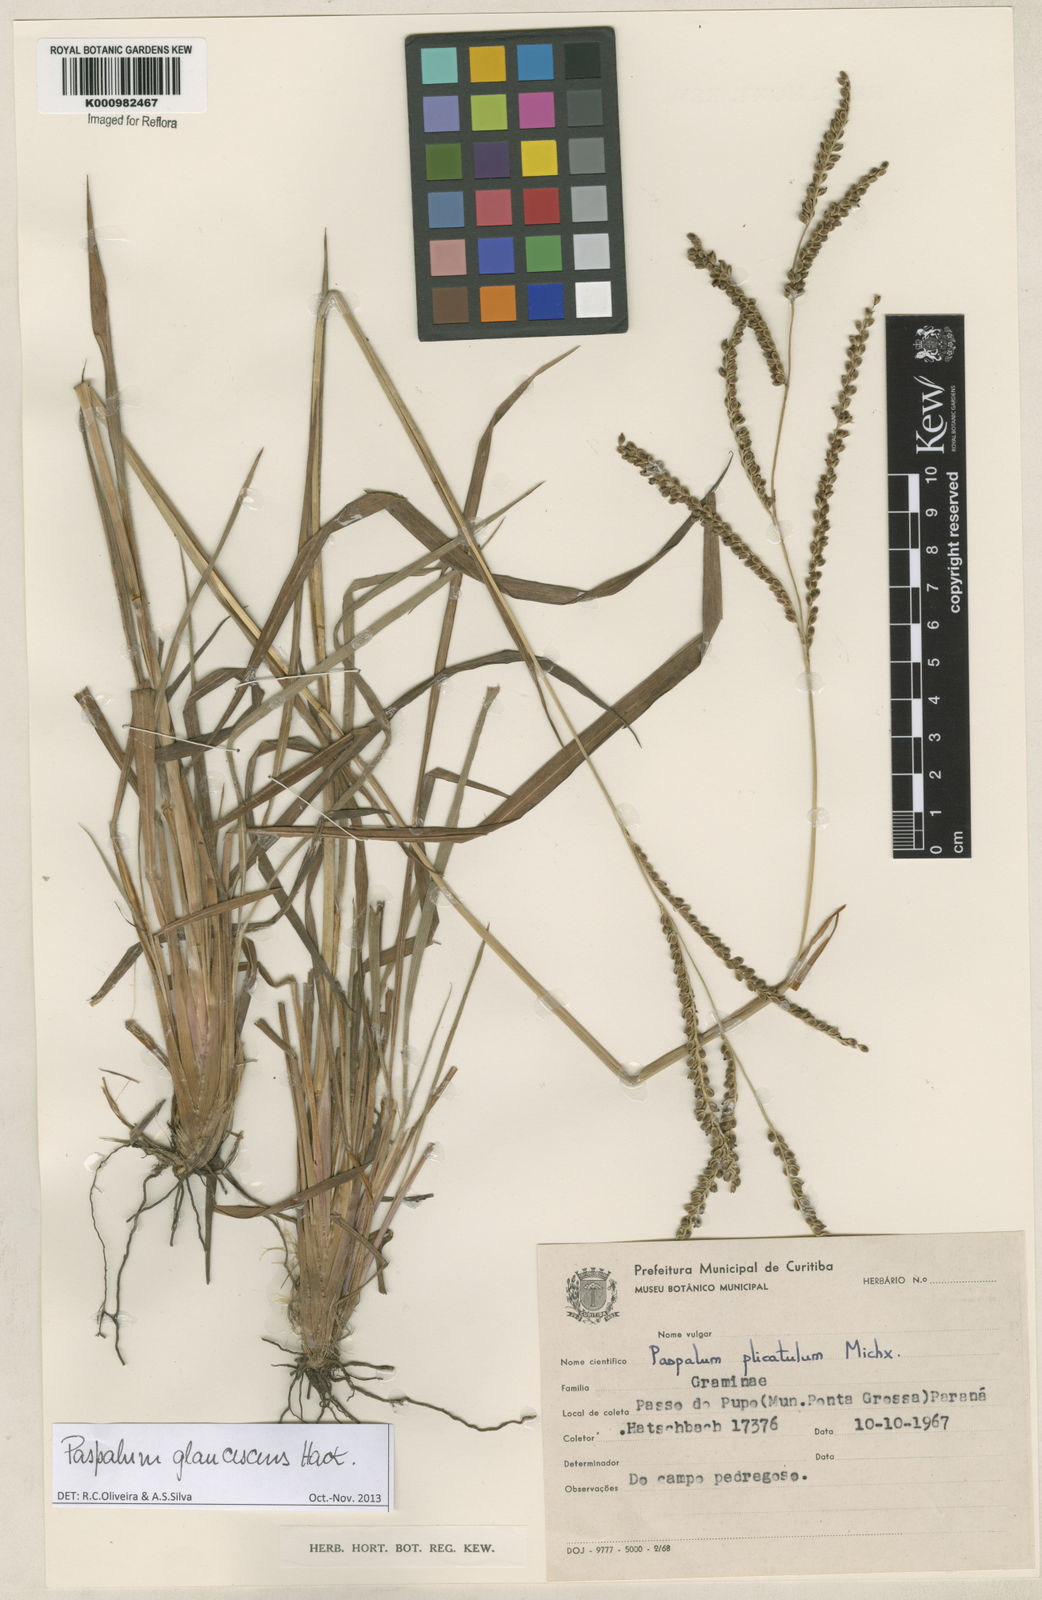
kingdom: Plantae
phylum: Tracheophyta
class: Liliopsida
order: Poales
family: Poaceae
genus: Paspalum
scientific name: Paspalum glaucescens
